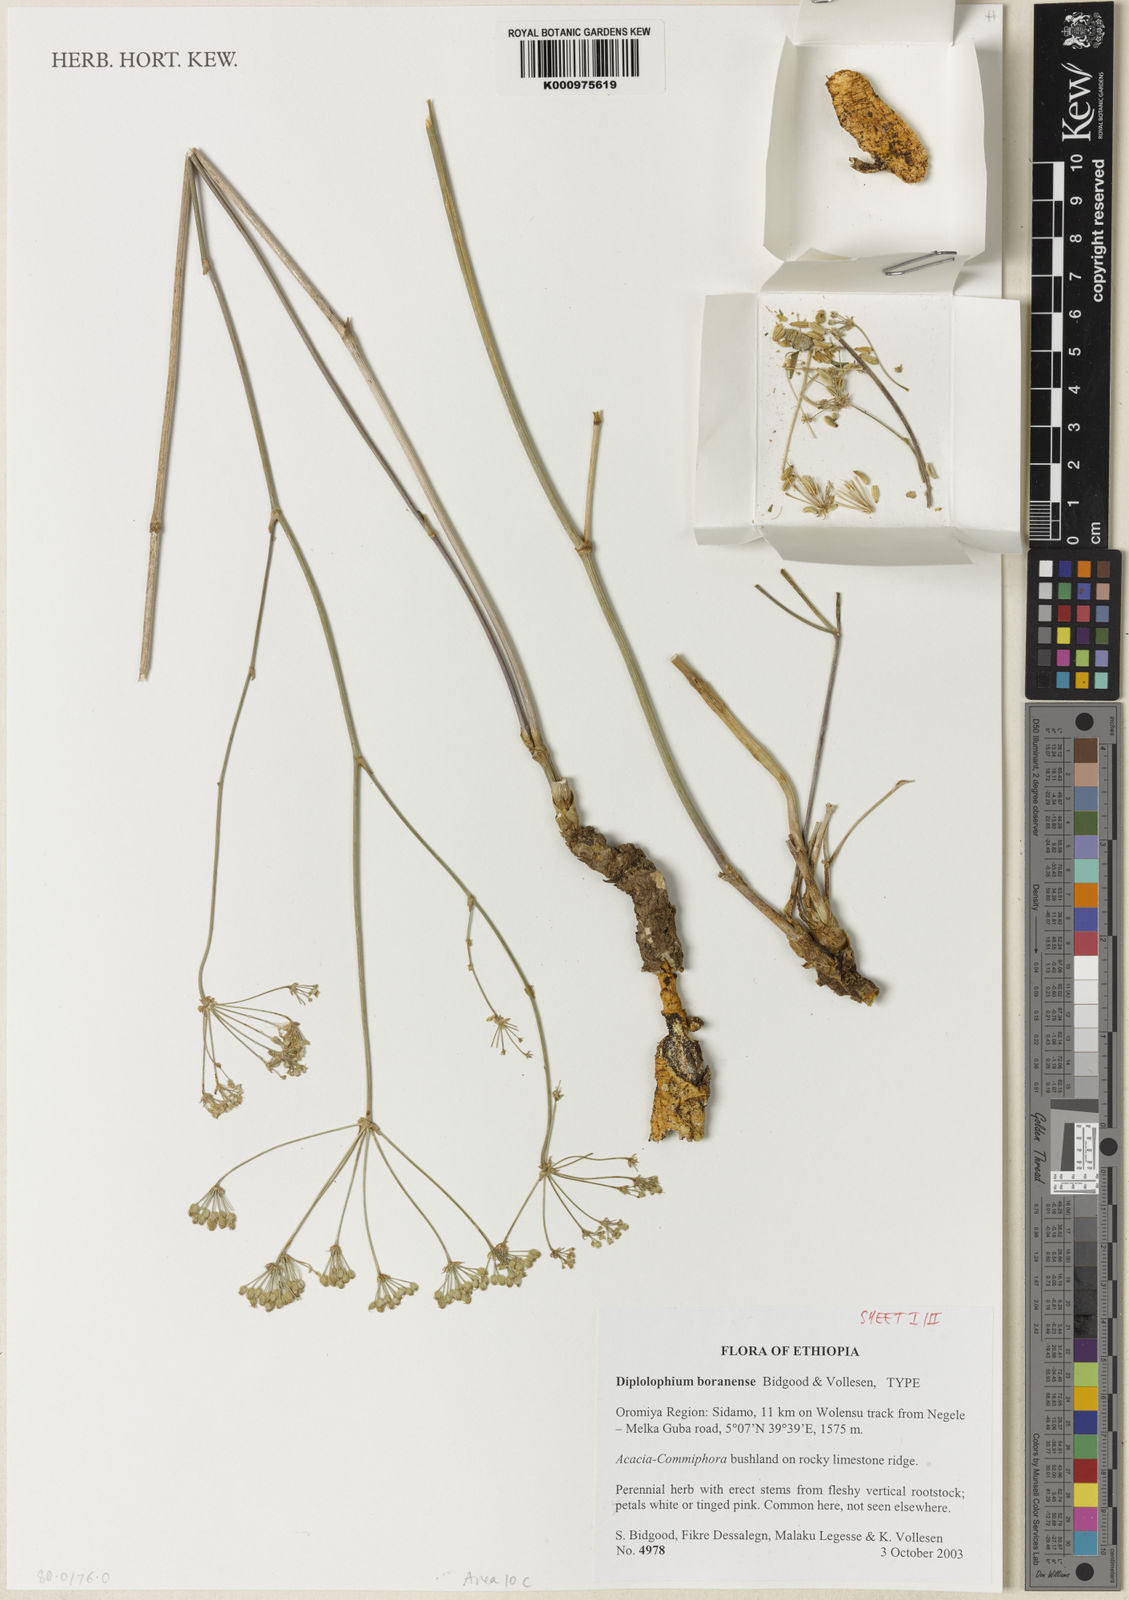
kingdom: Plantae
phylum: Tracheophyta
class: Magnoliopsida
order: Apiales
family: Apiaceae
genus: Diplolophium
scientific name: Diplolophium boranense
